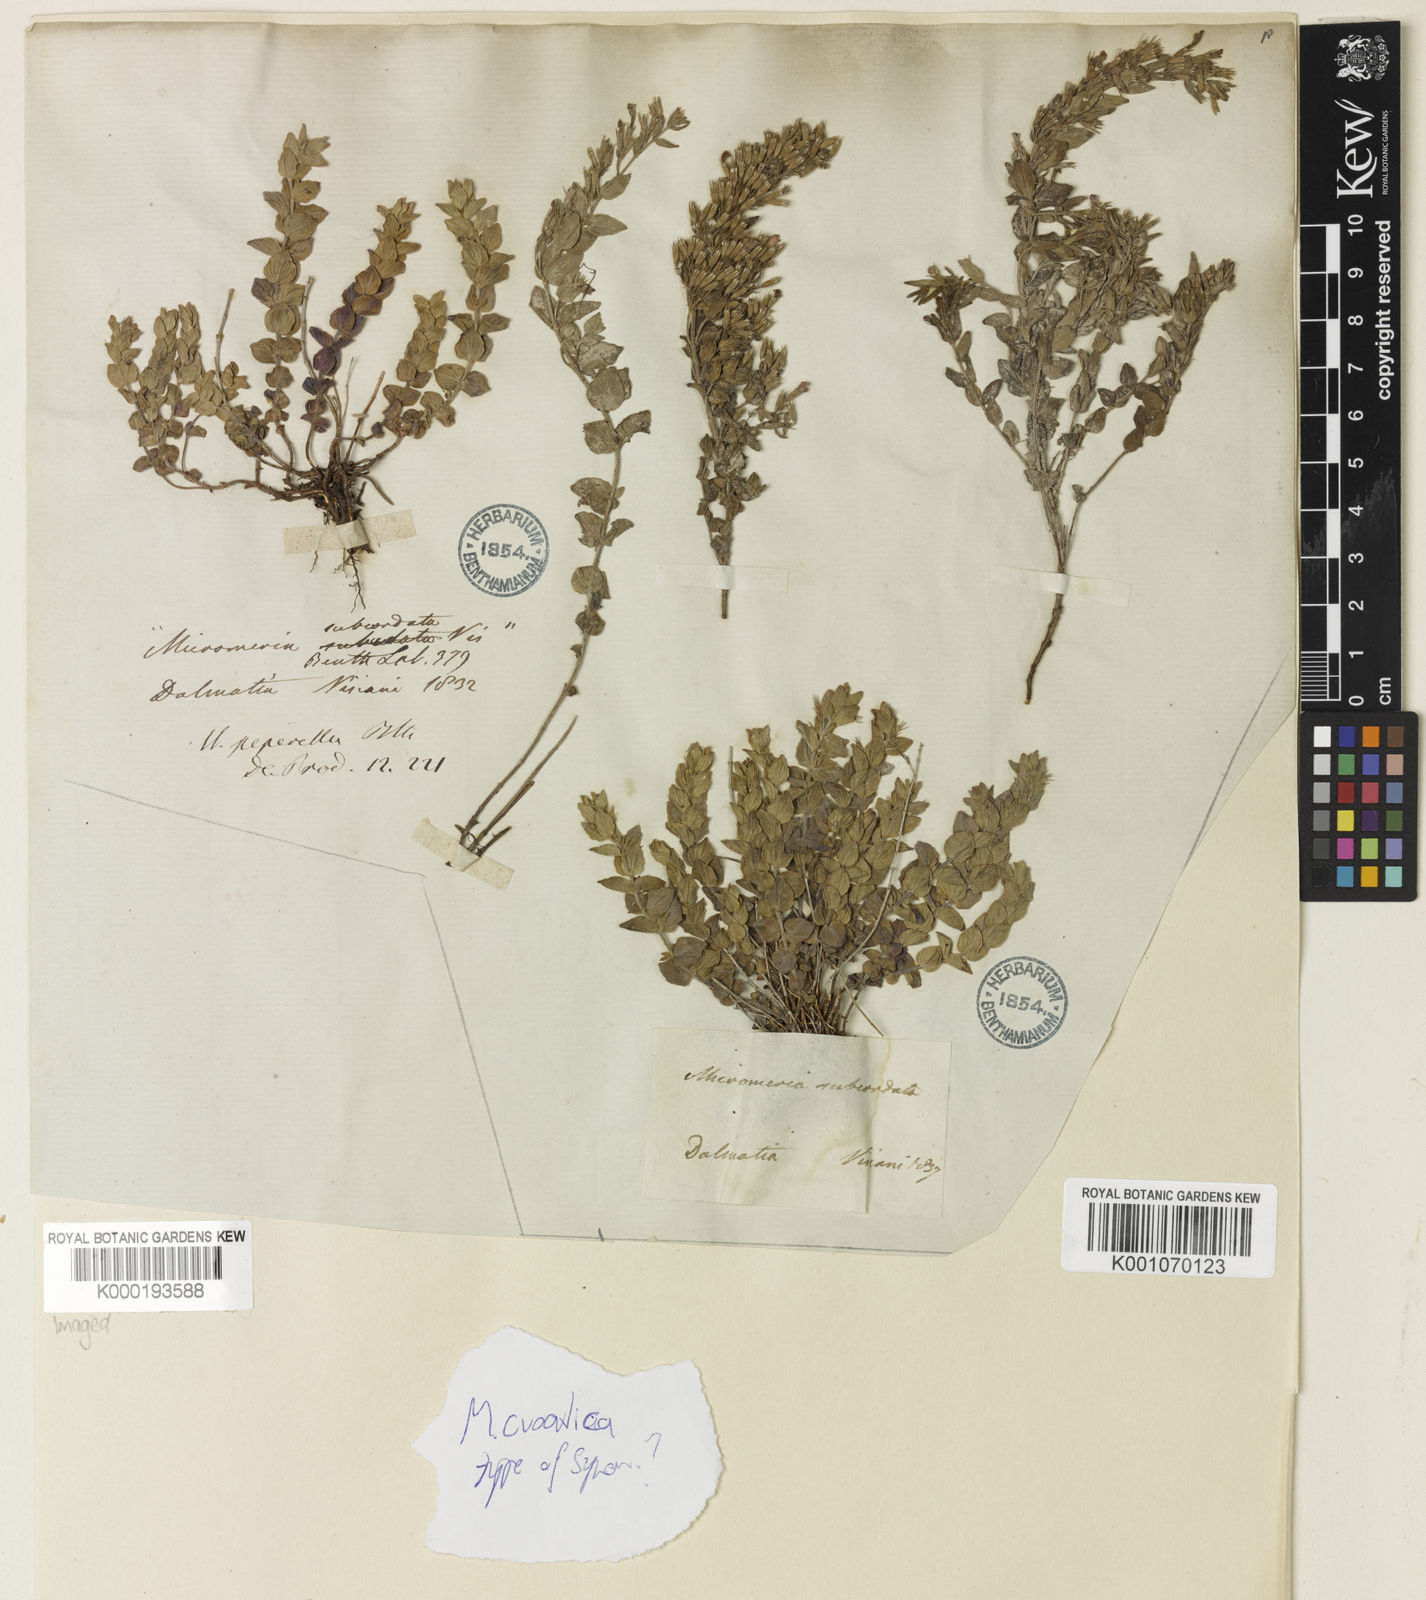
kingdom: Plantae
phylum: Tracheophyta
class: Magnoliopsida
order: Lamiales
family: Lamiaceae
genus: Micromeria
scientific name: Micromeria croatica
